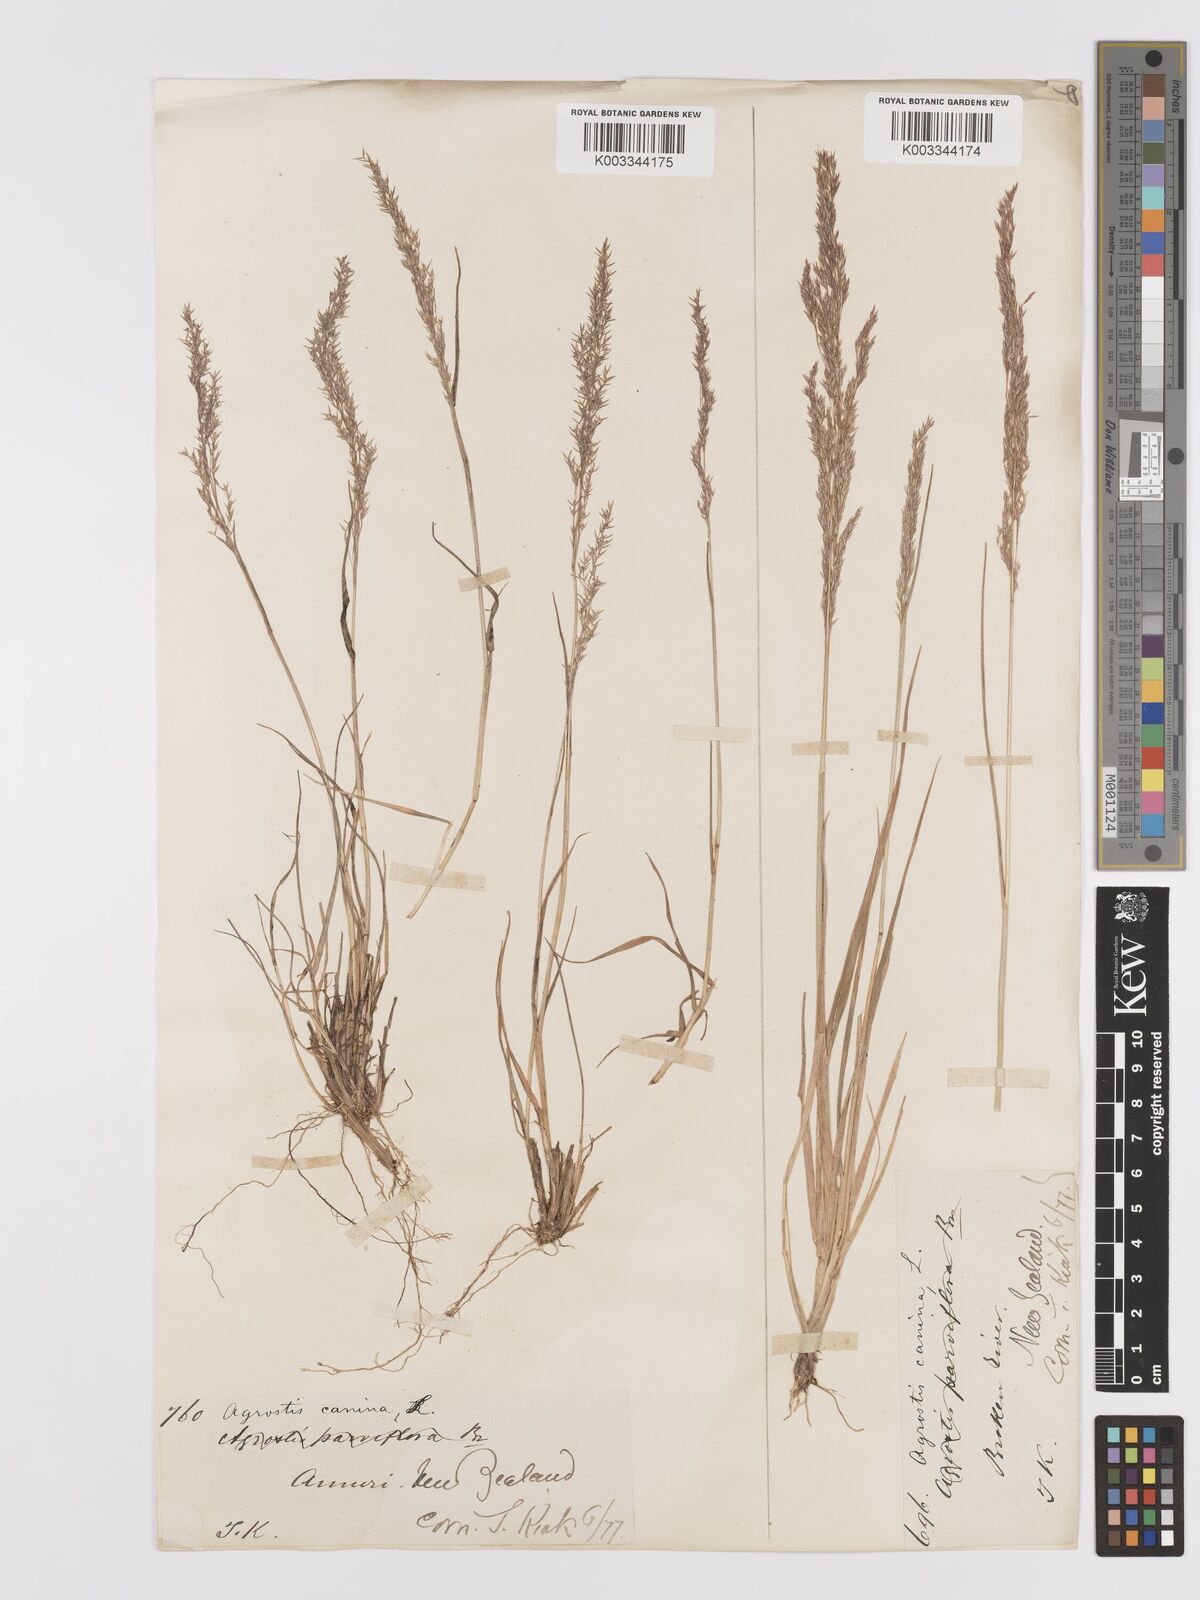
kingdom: Plantae
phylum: Tracheophyta
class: Liliopsida
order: Poales
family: Poaceae
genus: Agrostis
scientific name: Agrostis personata
